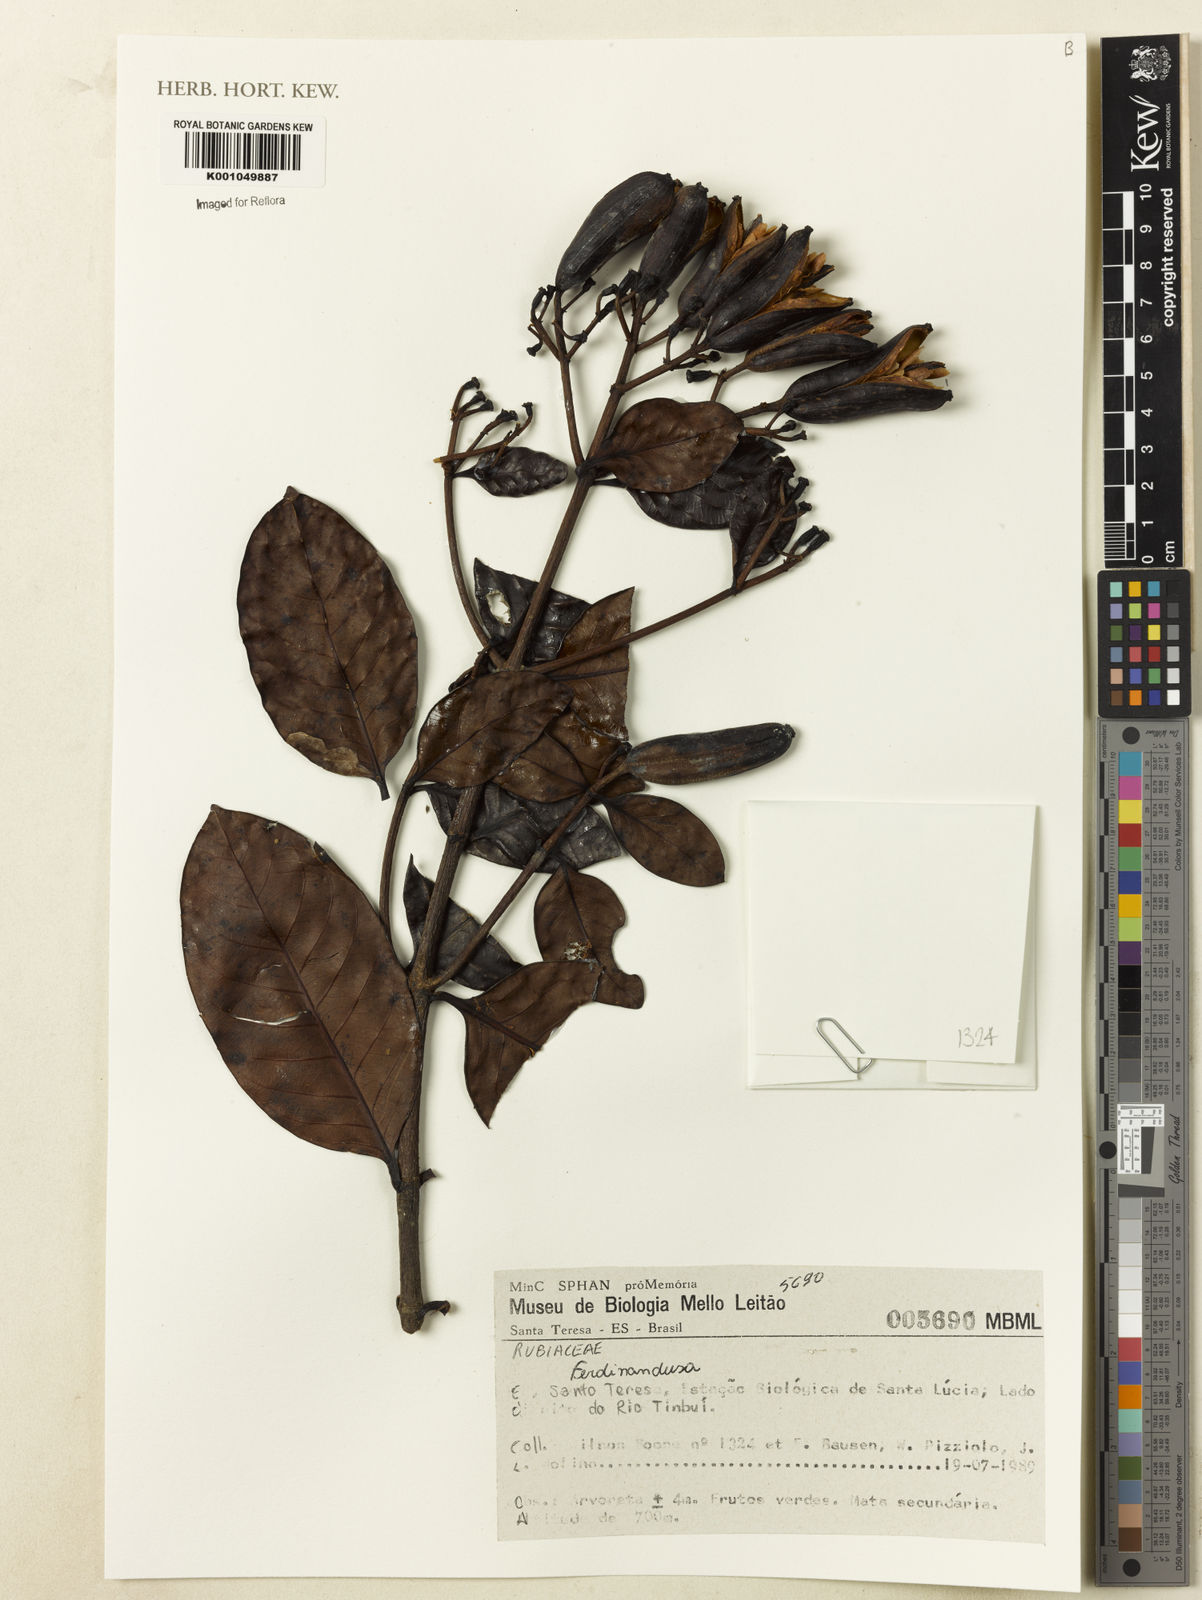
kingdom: Plantae
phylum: Tracheophyta
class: Magnoliopsida
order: Gentianales
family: Rubiaceae
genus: Ferdinandusa
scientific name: Ferdinandusa
